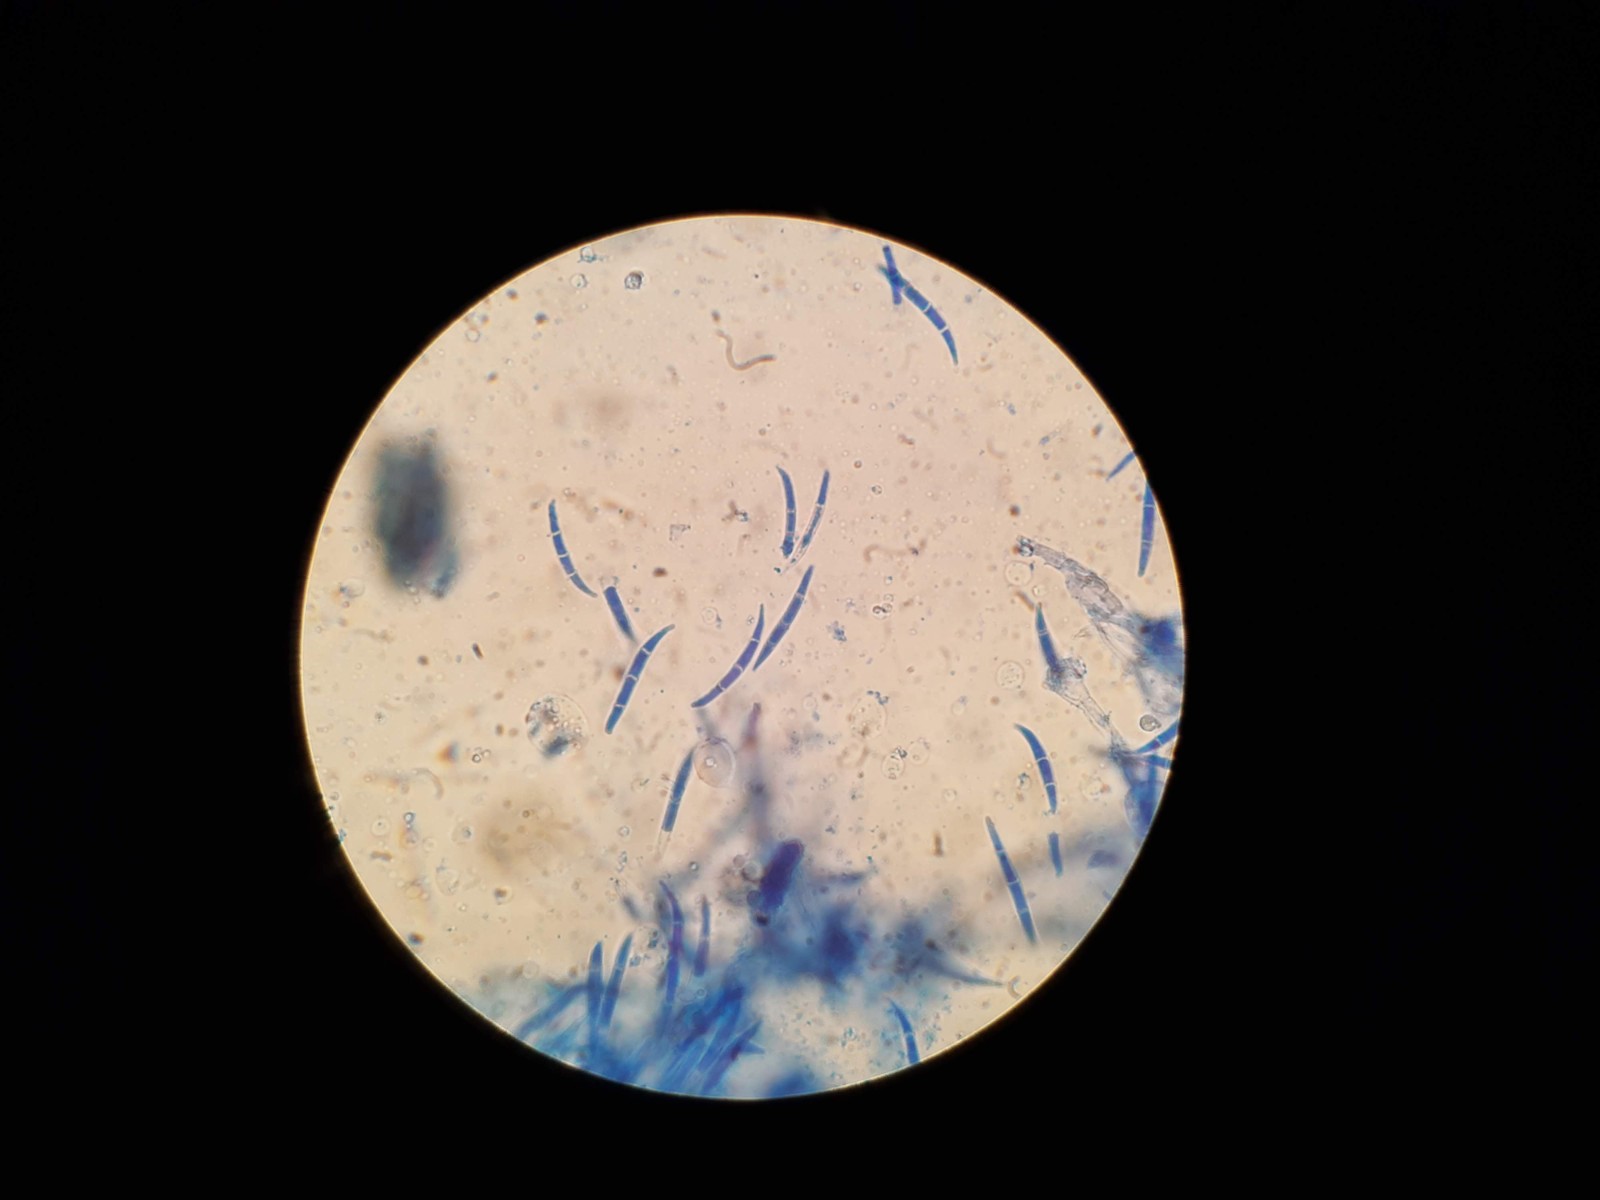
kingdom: Fungi
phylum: Ascomycota
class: Sordariomycetes
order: Hypocreales
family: Nectriaceae
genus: Fusarium
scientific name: Fusarium
